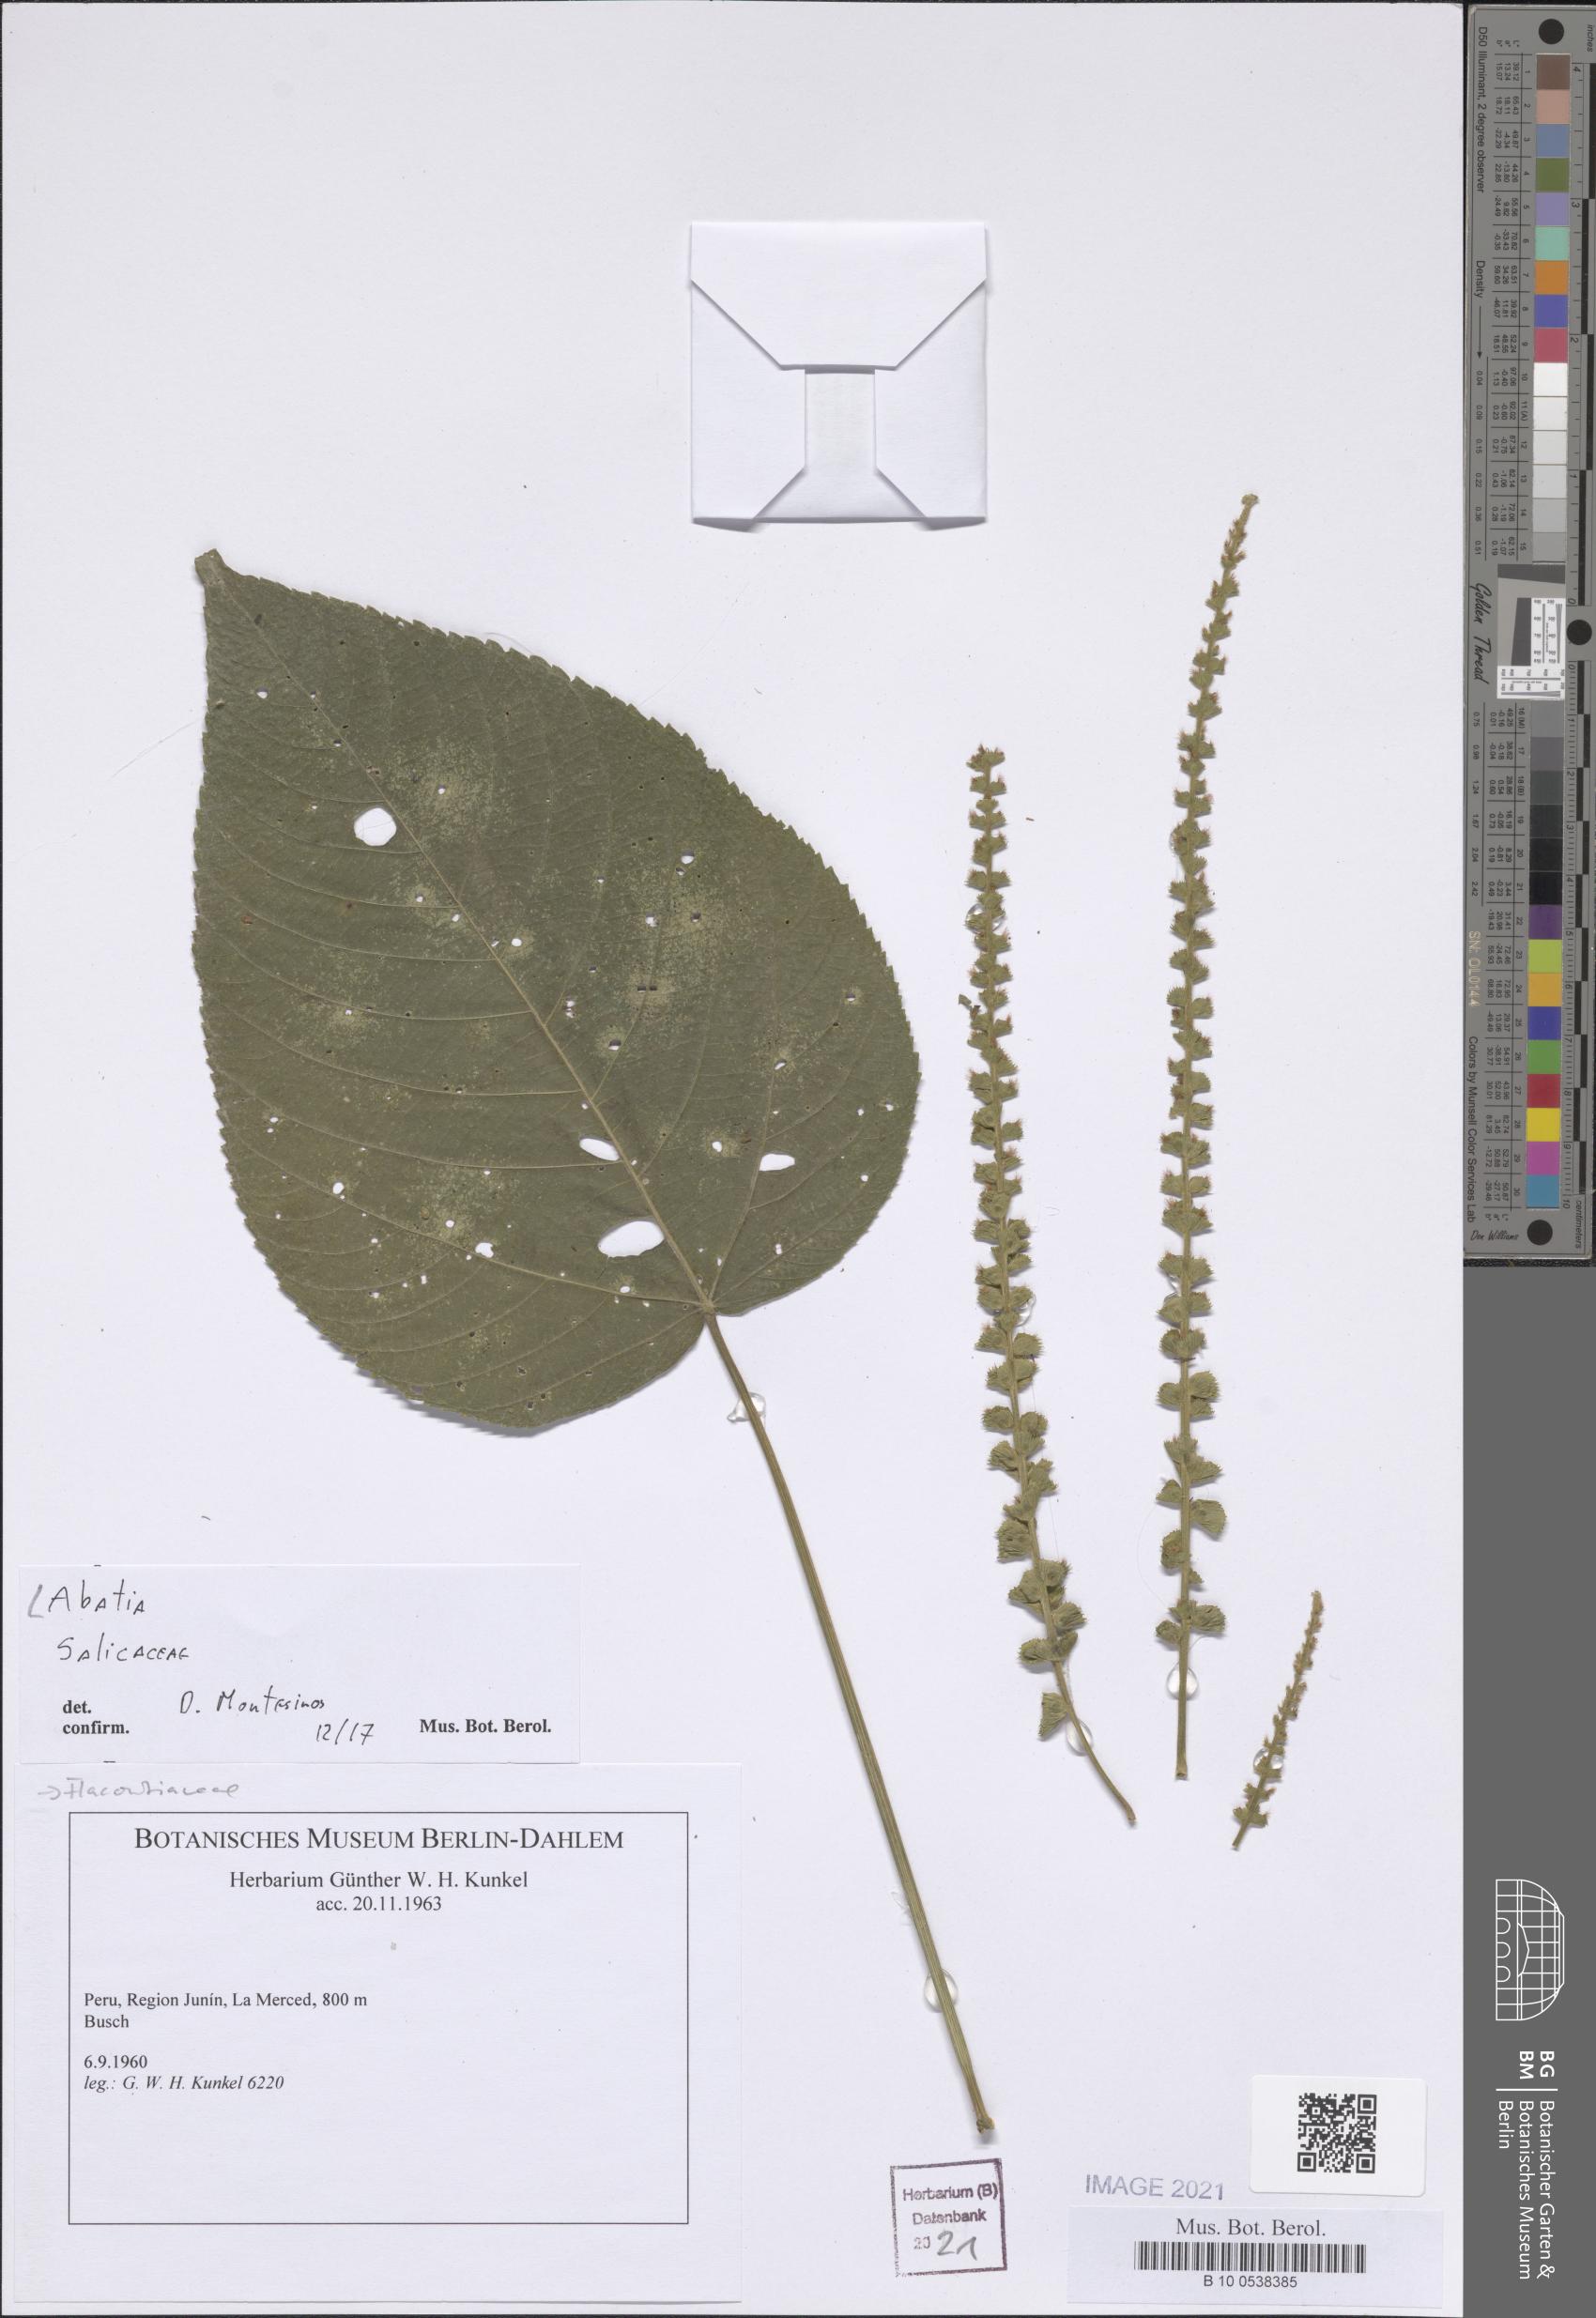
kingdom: Plantae
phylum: Tracheophyta
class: Magnoliopsida
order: Malpighiales
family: Salicaceae
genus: Abatia
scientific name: Abatia
